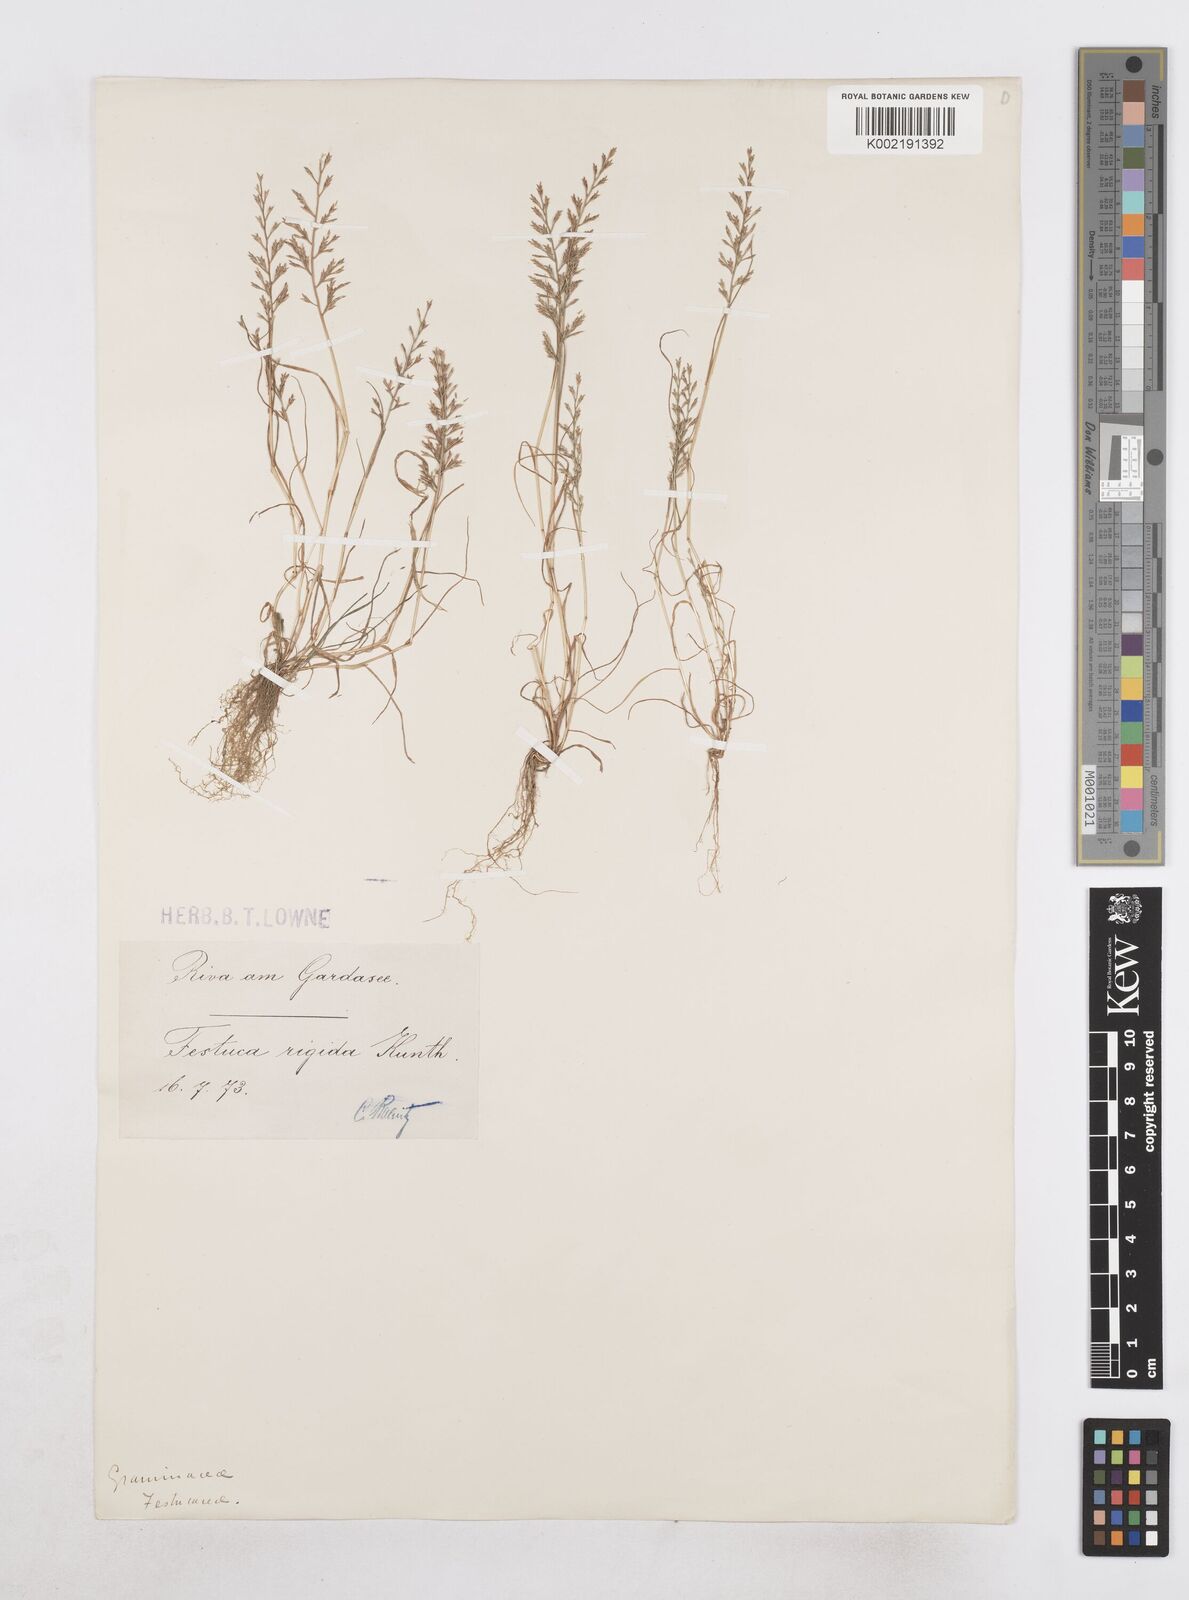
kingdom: Plantae
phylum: Tracheophyta
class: Liliopsida
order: Poales
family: Poaceae
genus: Catapodium
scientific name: Catapodium rigidum
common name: Fern-grass
